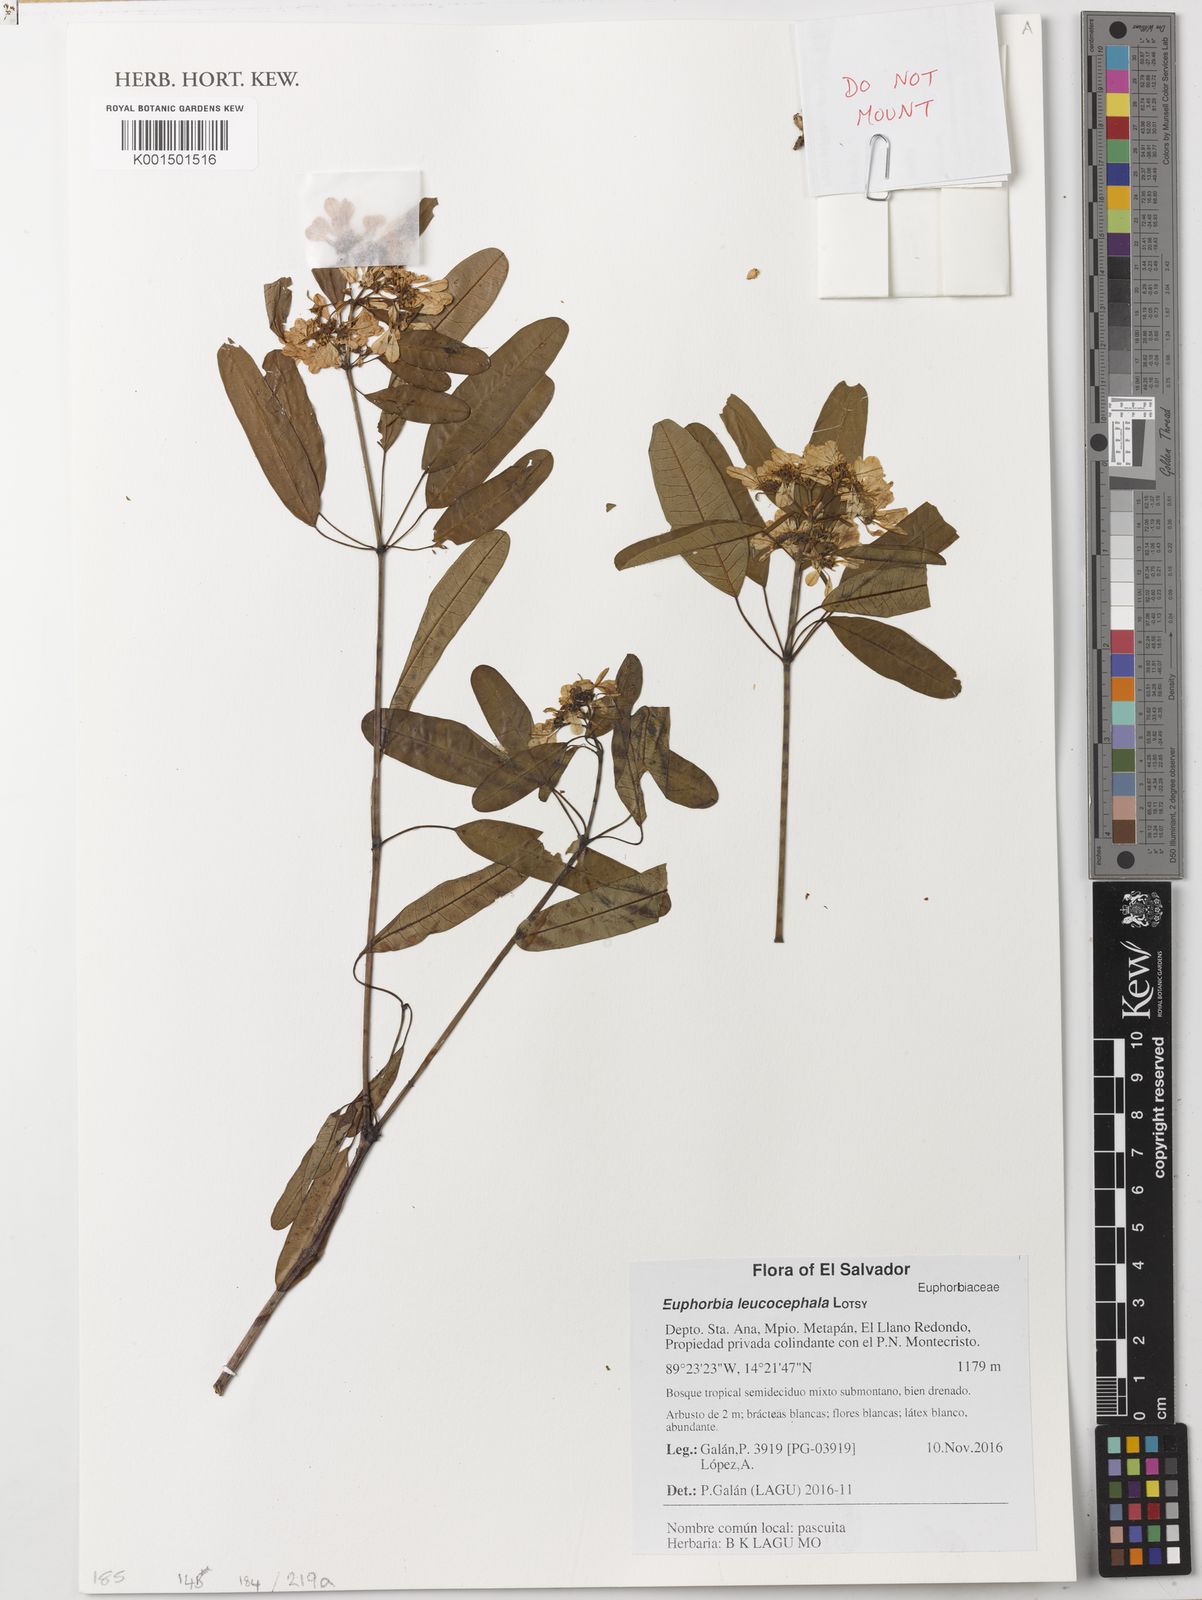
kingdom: Plantae
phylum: Tracheophyta
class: Magnoliopsida
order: Malpighiales
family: Euphorbiaceae
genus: Euphorbia
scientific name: Euphorbia leucocephala
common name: Pascuita
